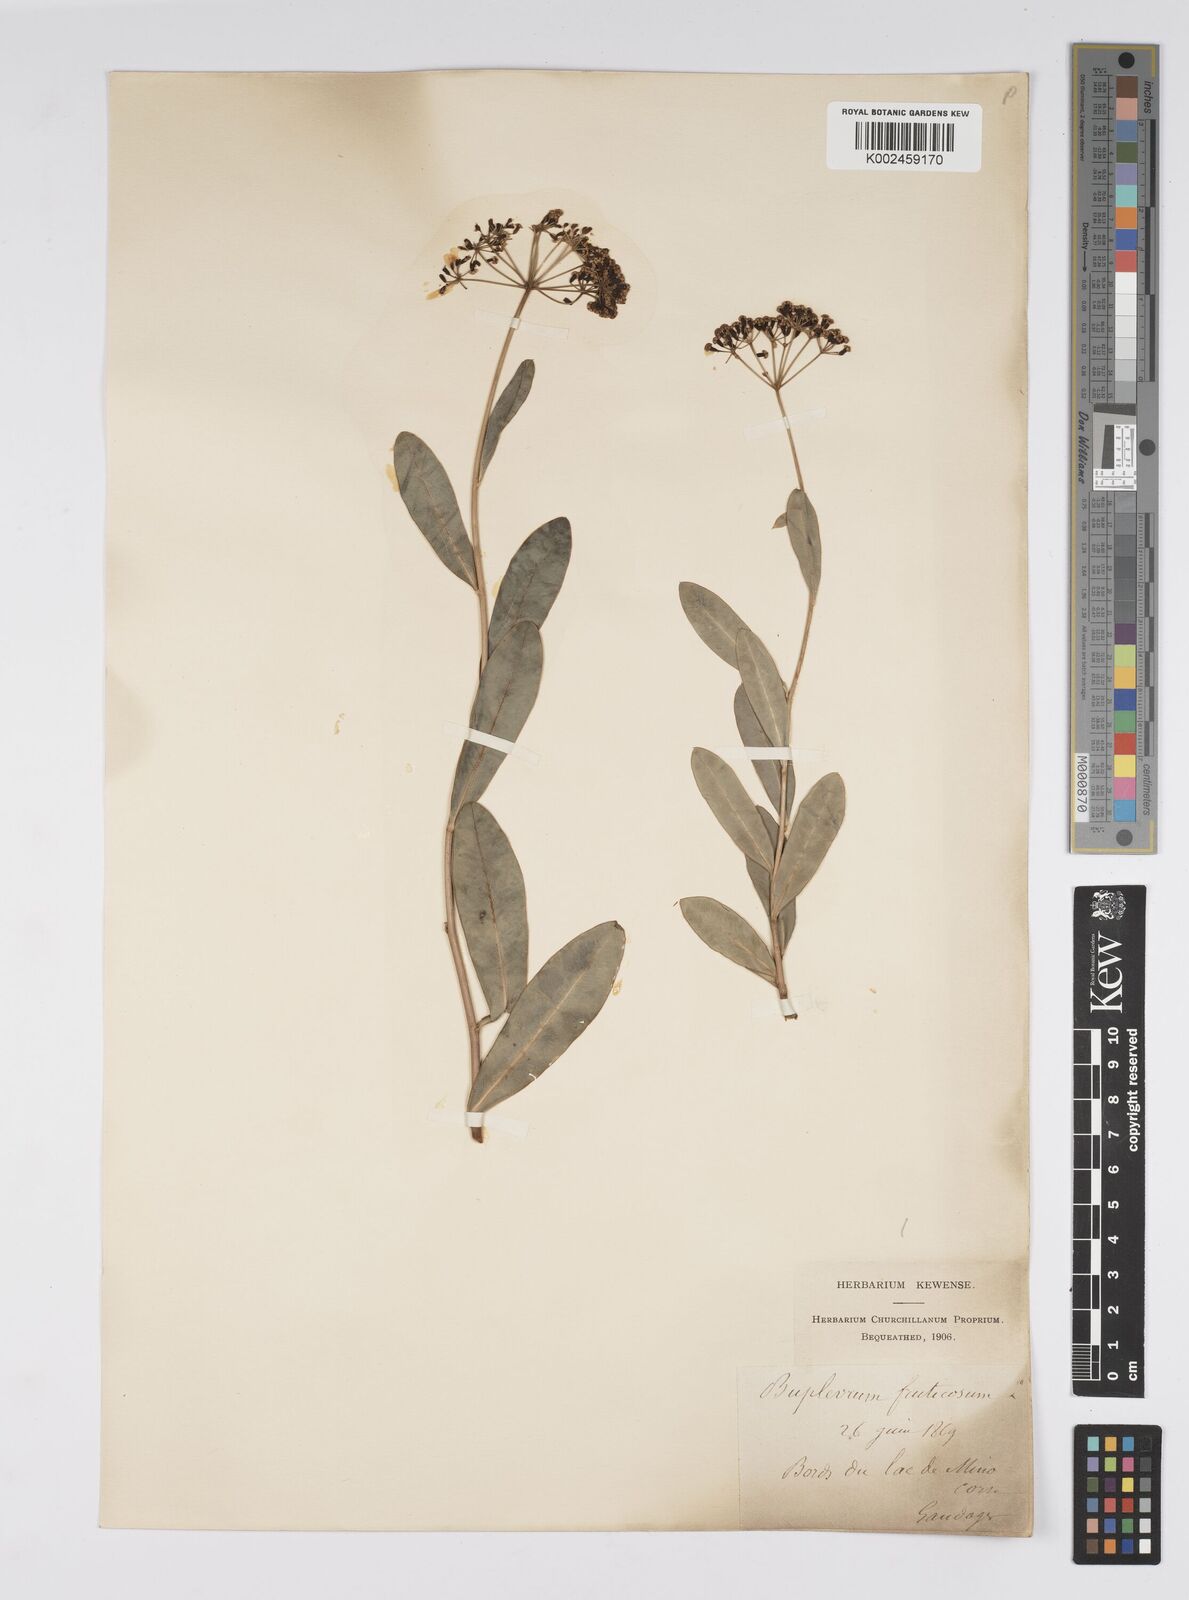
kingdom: Plantae
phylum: Tracheophyta
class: Magnoliopsida
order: Apiales
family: Apiaceae
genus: Bupleurum
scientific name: Bupleurum fruticosum
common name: Shrubby hare's-ear
